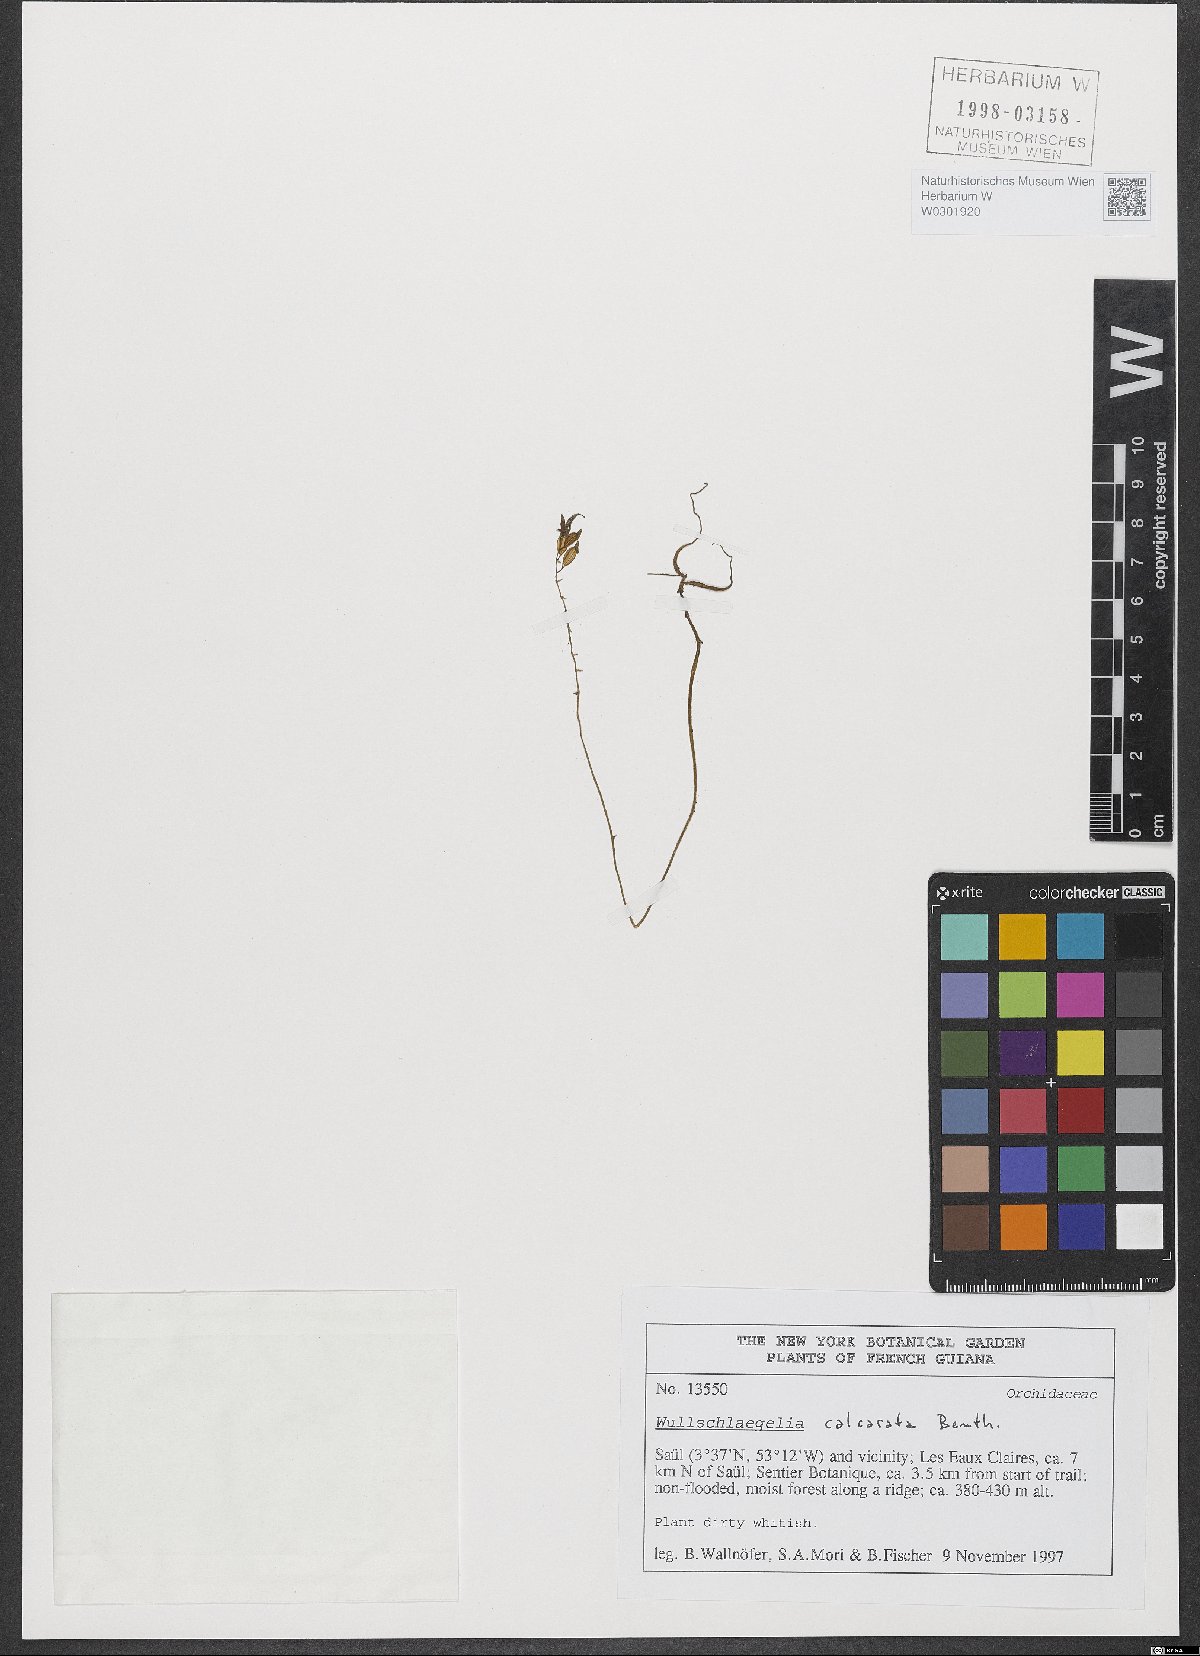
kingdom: Plantae
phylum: Tracheophyta
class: Liliopsida
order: Asparagales
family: Orchidaceae
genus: Wullschlaegelia
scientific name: Wullschlaegelia calcarata
